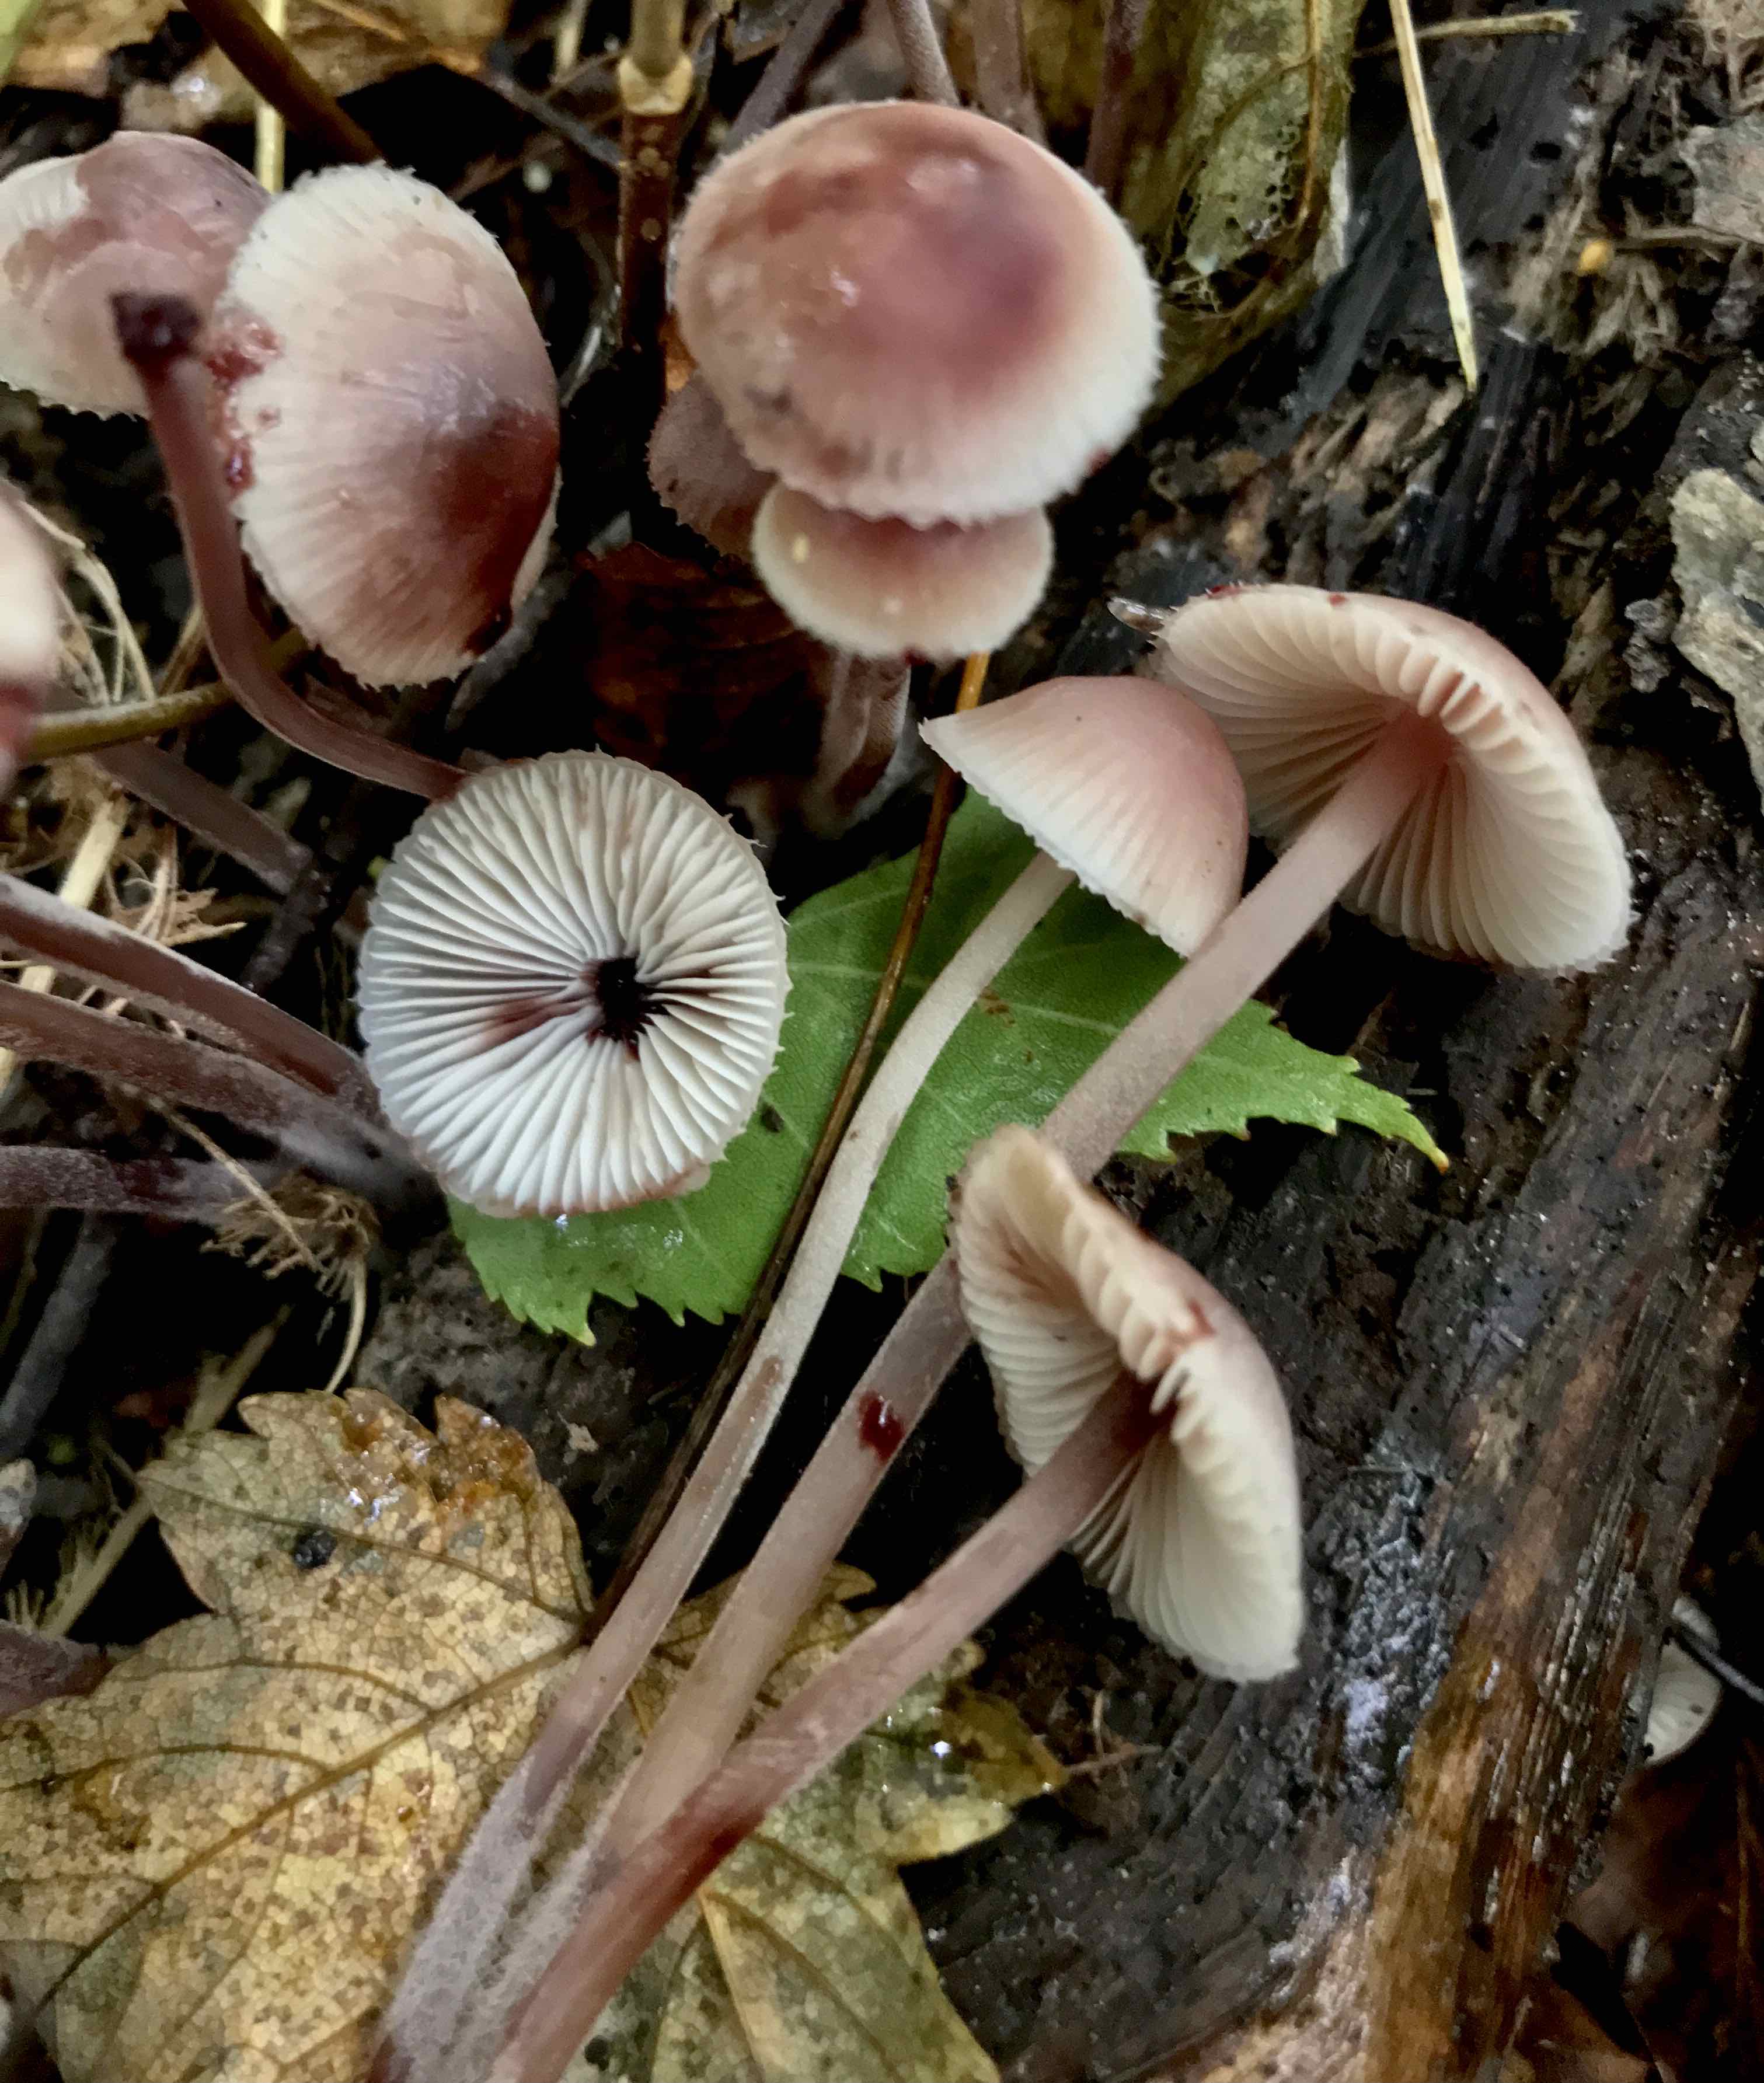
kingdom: Fungi
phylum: Basidiomycota
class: Agaricomycetes
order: Agaricales
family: Mycenaceae
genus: Mycena
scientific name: Mycena haematopus
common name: blødende huesvamp
